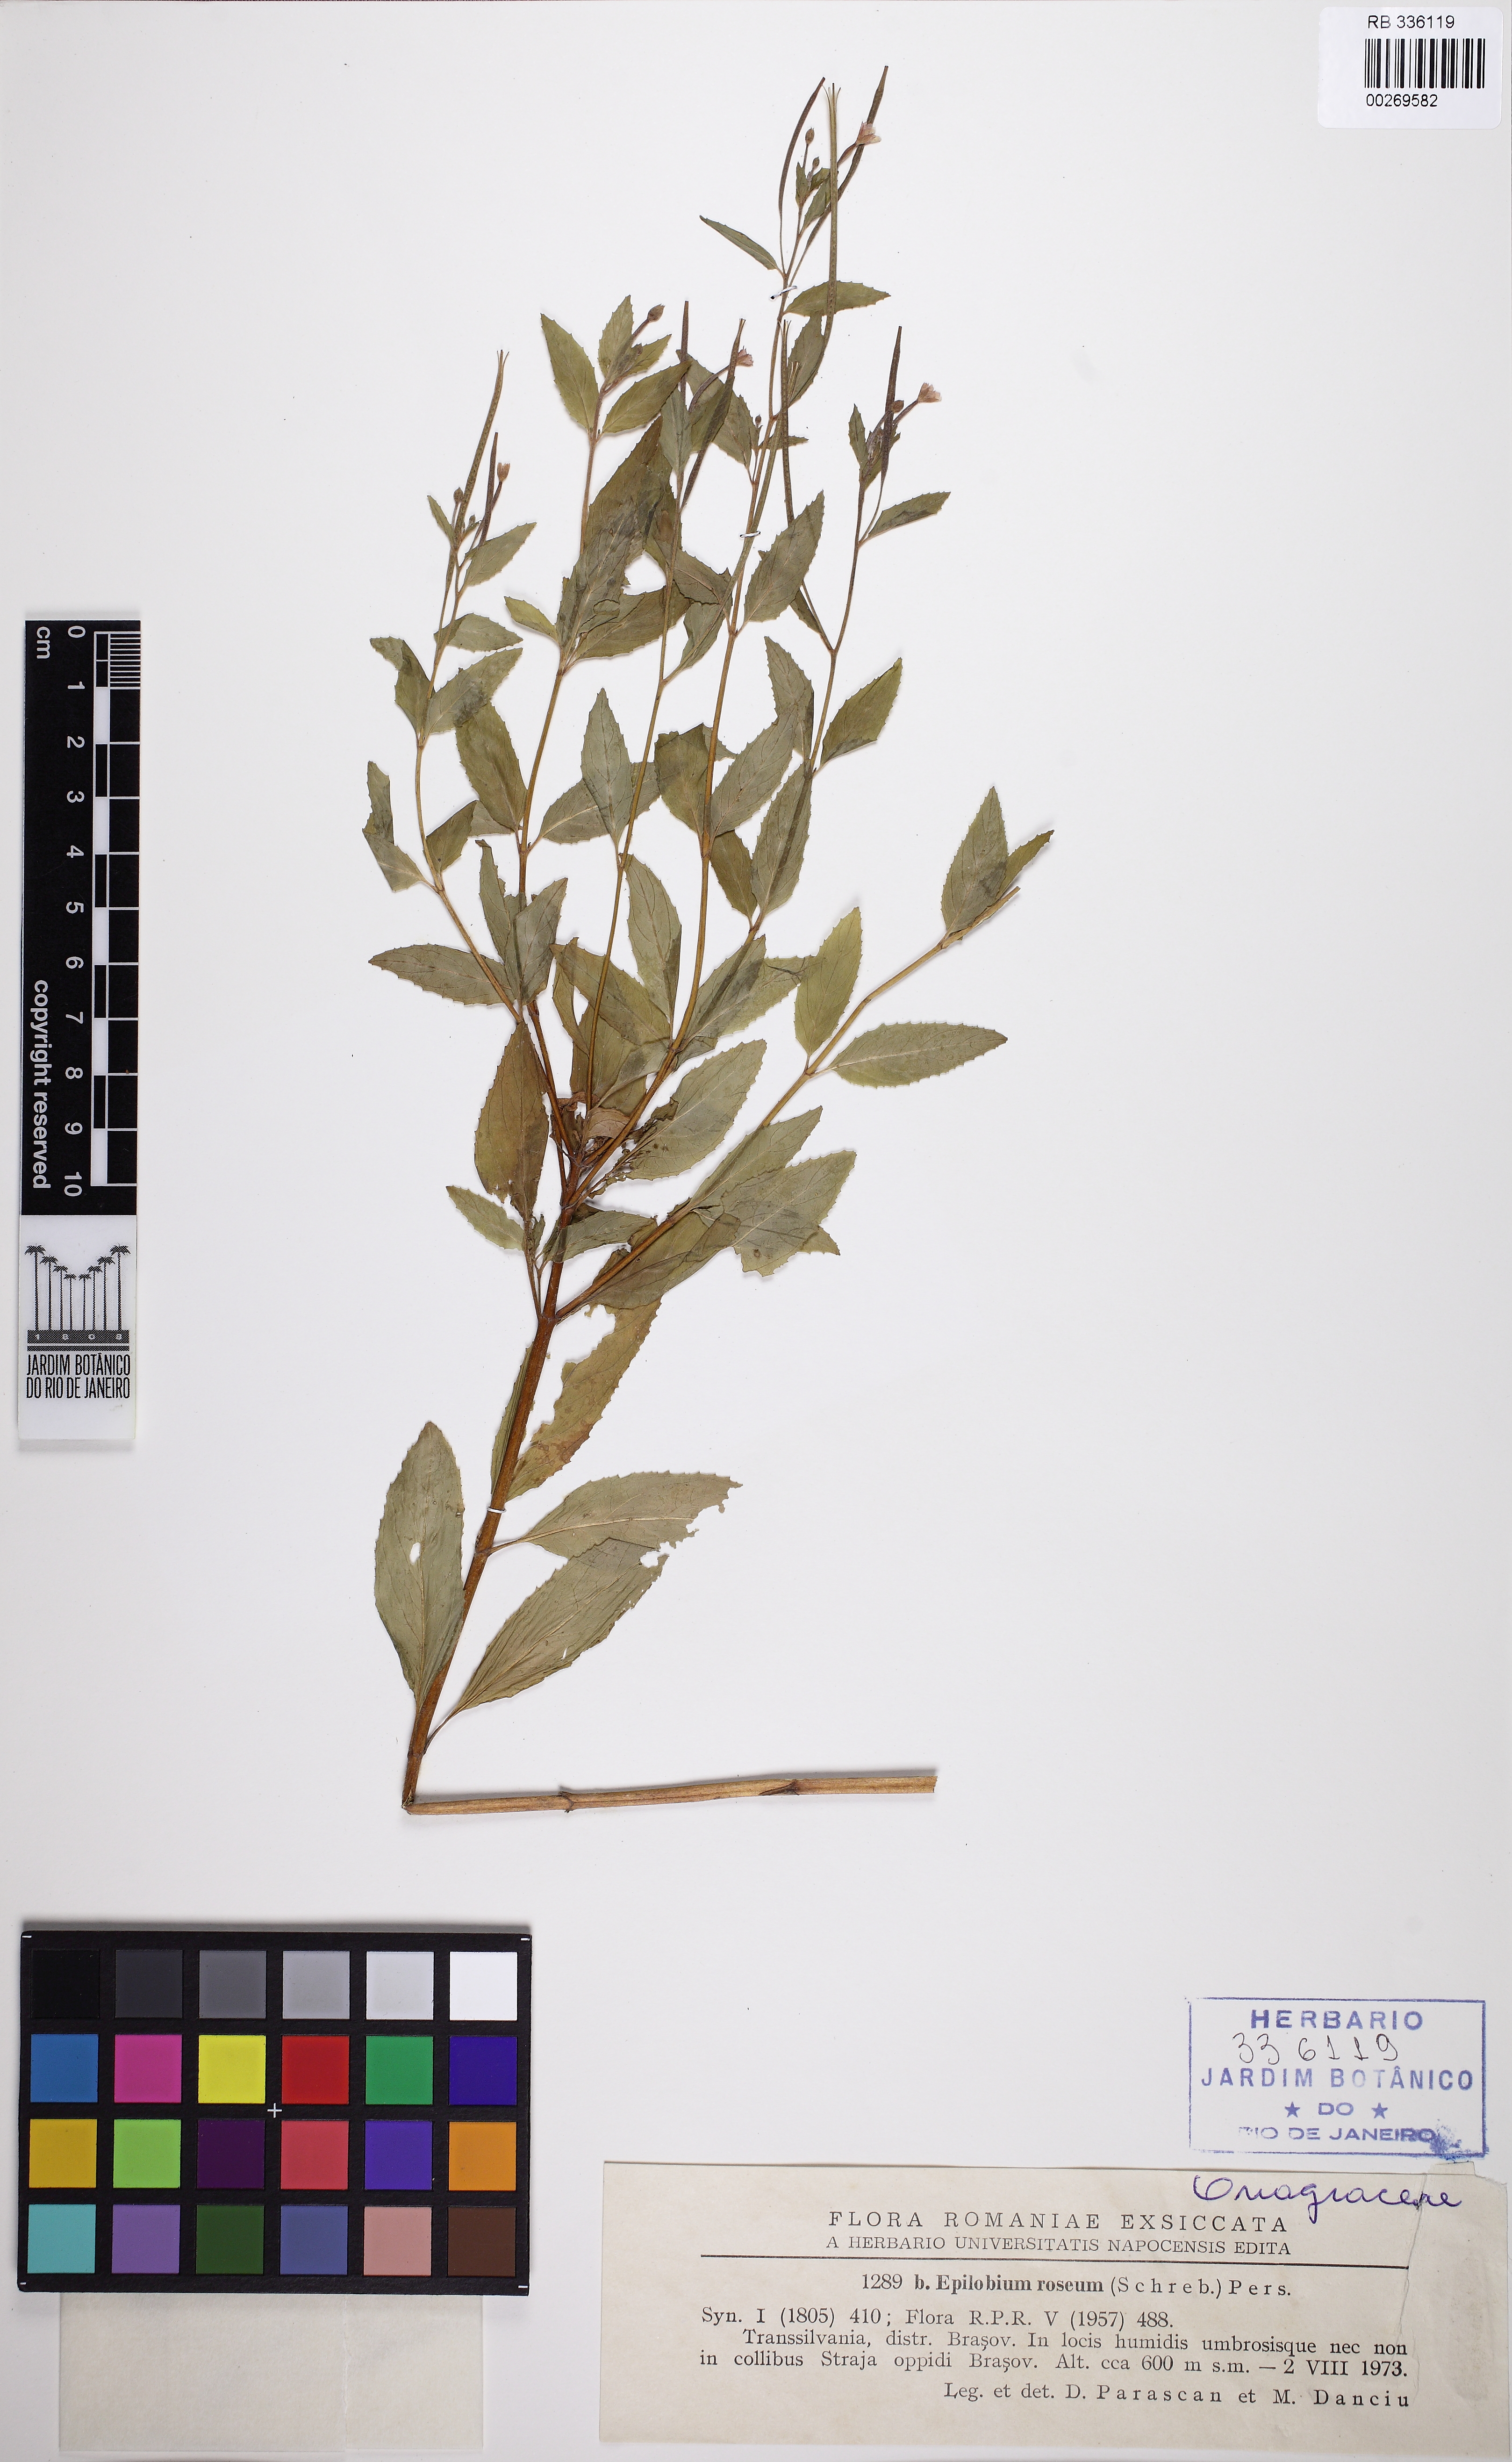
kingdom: Plantae
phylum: Tracheophyta
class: Magnoliopsida
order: Myrtales
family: Onagraceae
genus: Epilobium
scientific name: Epilobium roseum
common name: Pale willowherb
